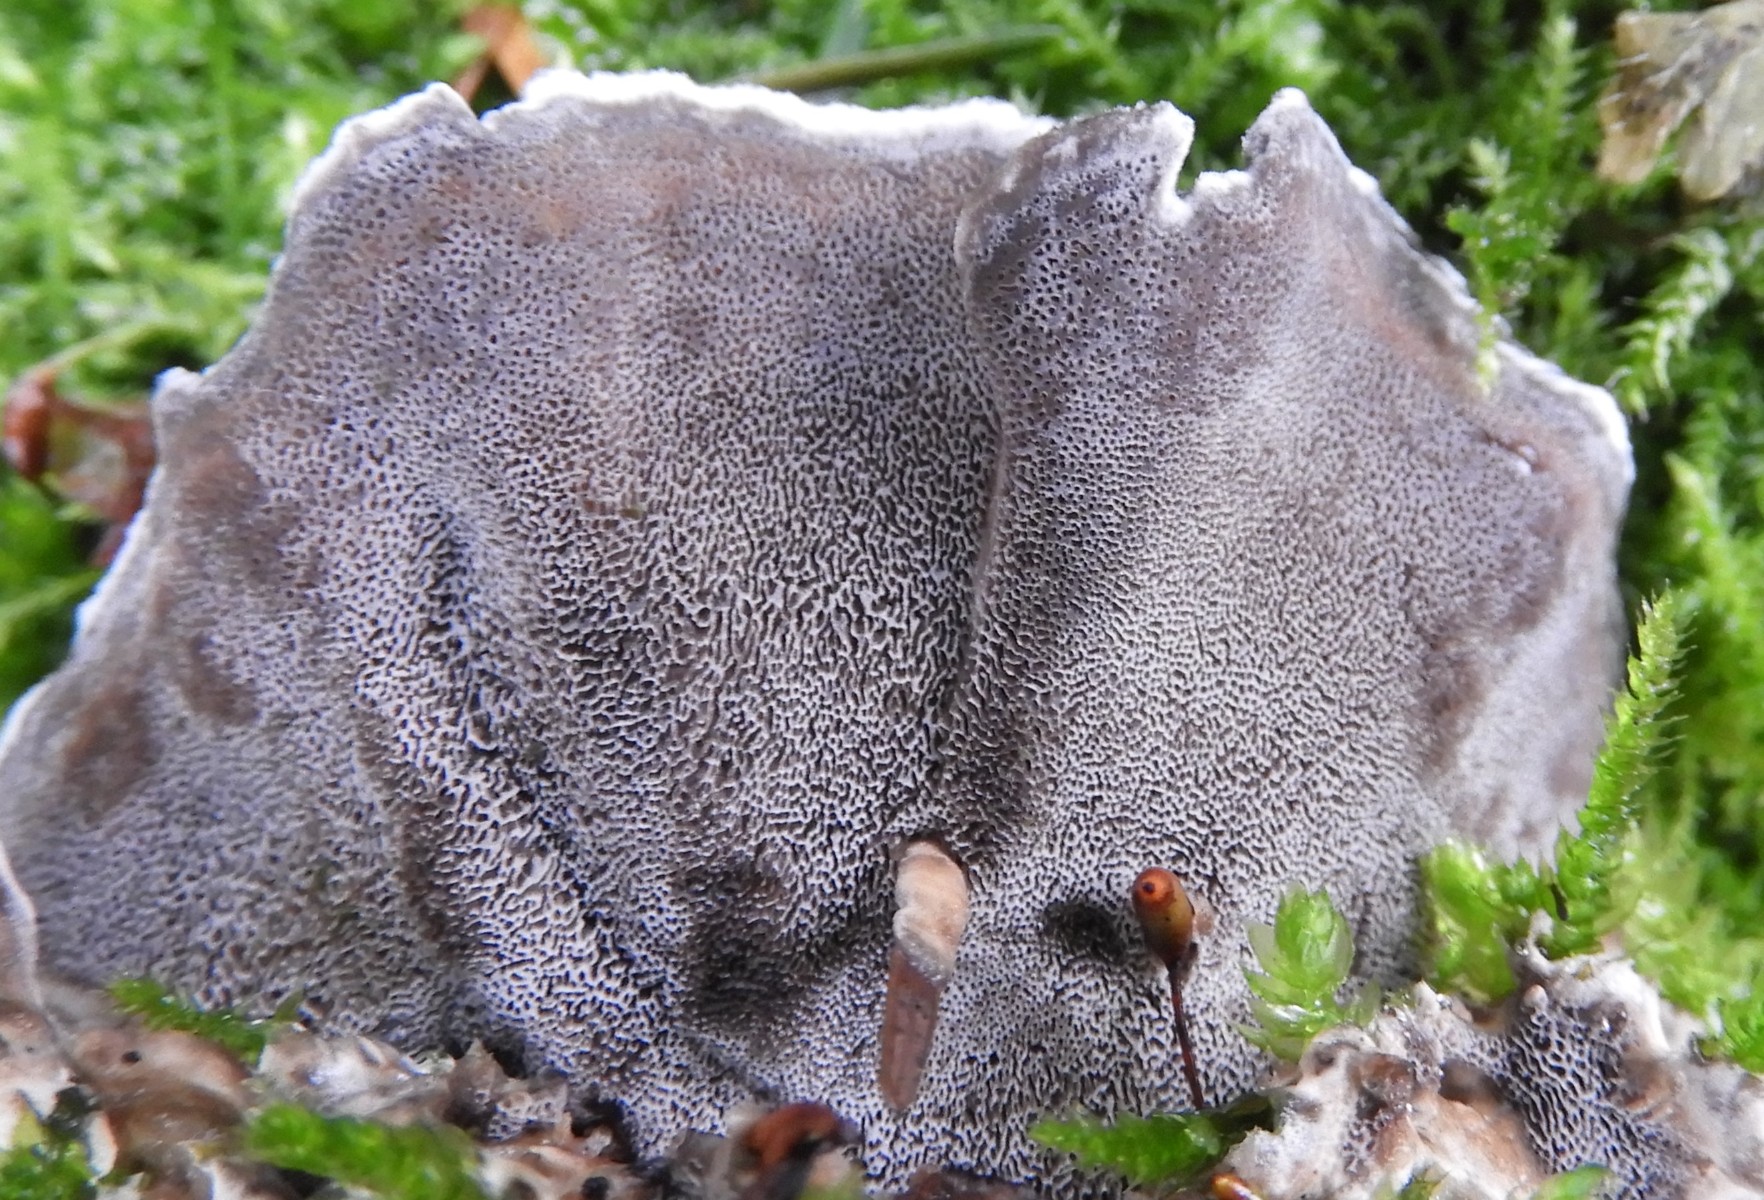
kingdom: Fungi
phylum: Basidiomycota
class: Agaricomycetes
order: Polyporales
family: Phanerochaetaceae
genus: Bjerkandera
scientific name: Bjerkandera adusta
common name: sveden sodporesvamp
